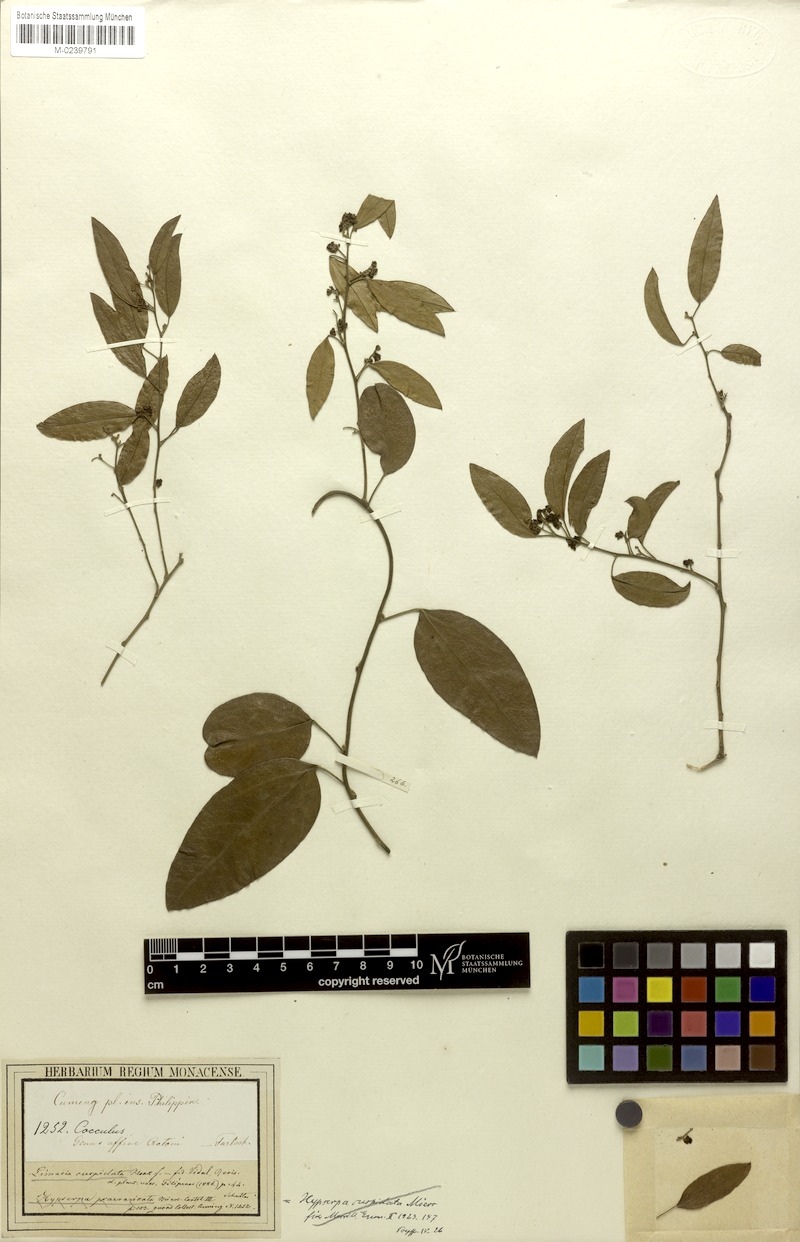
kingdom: Plantae
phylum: Tracheophyta
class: Magnoliopsida
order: Ranunculales
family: Menispermaceae
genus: Hypserpa
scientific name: Hypserpa nitida
